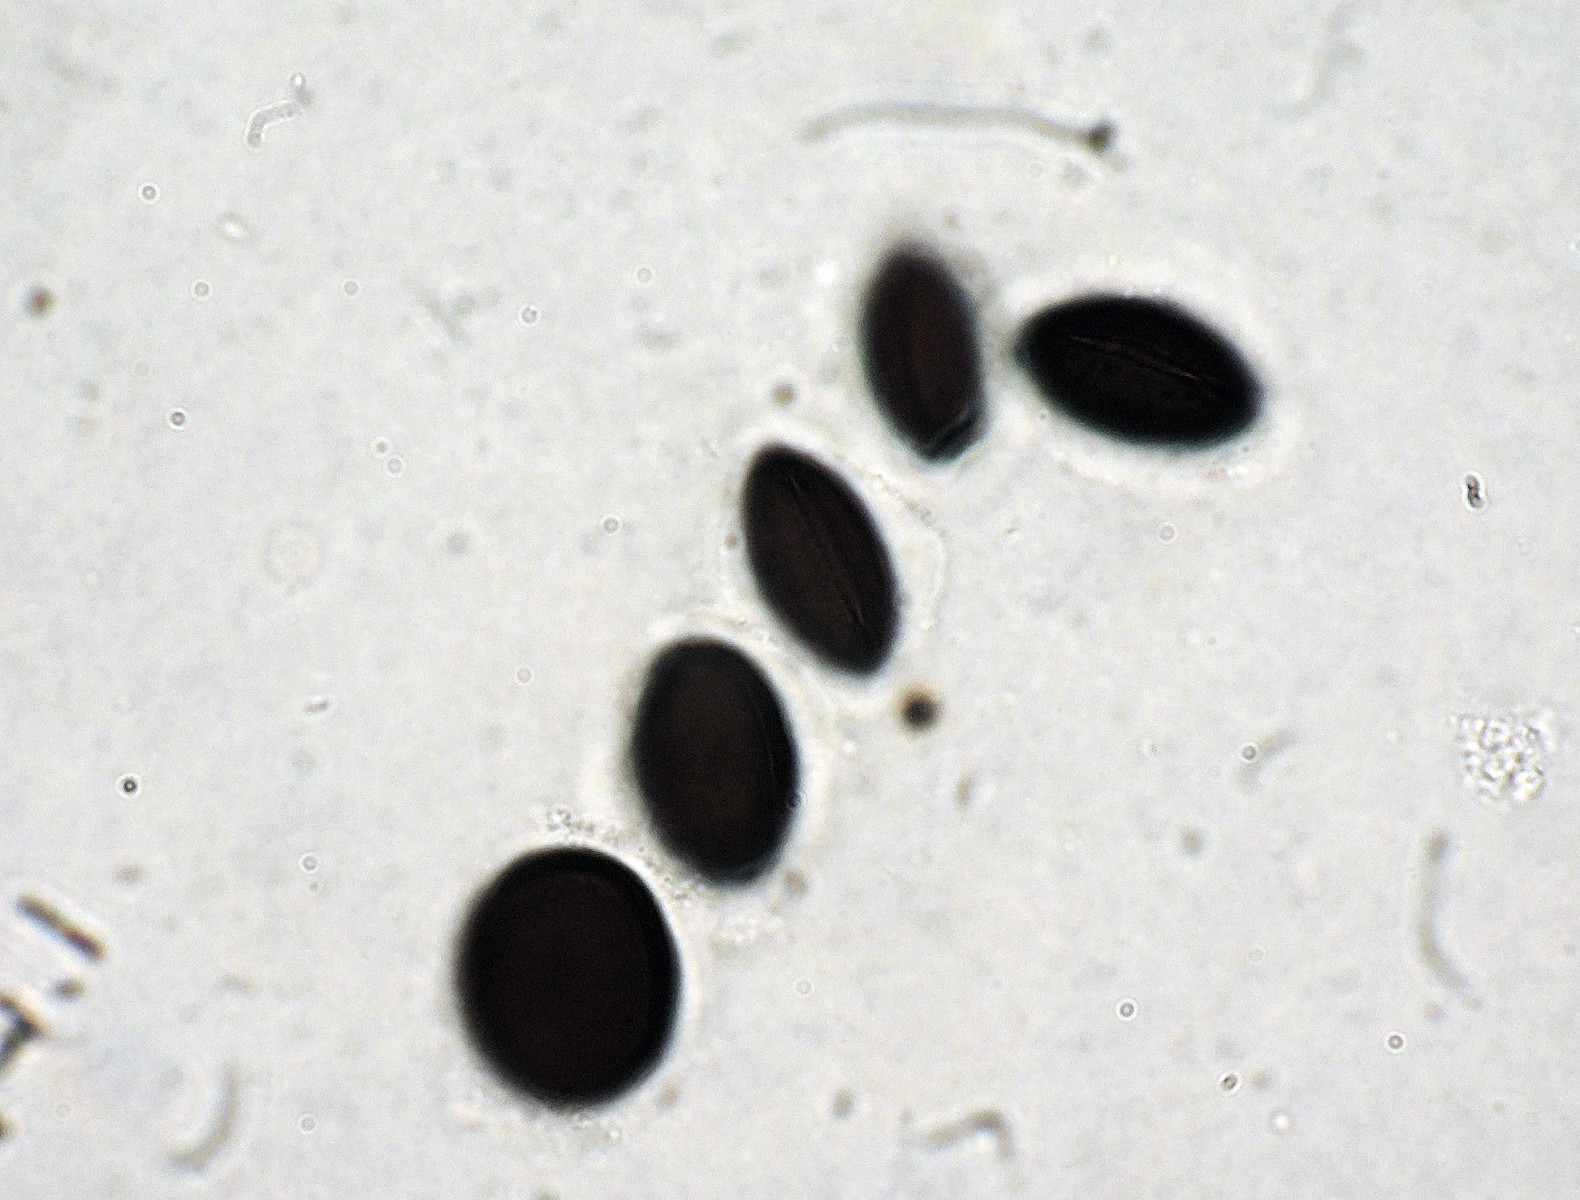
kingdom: Fungi
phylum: Ascomycota
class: Sordariomycetes
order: Coniochaetales
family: Coniochaetaceae
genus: Coniochaeta
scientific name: Coniochaeta scatigena
